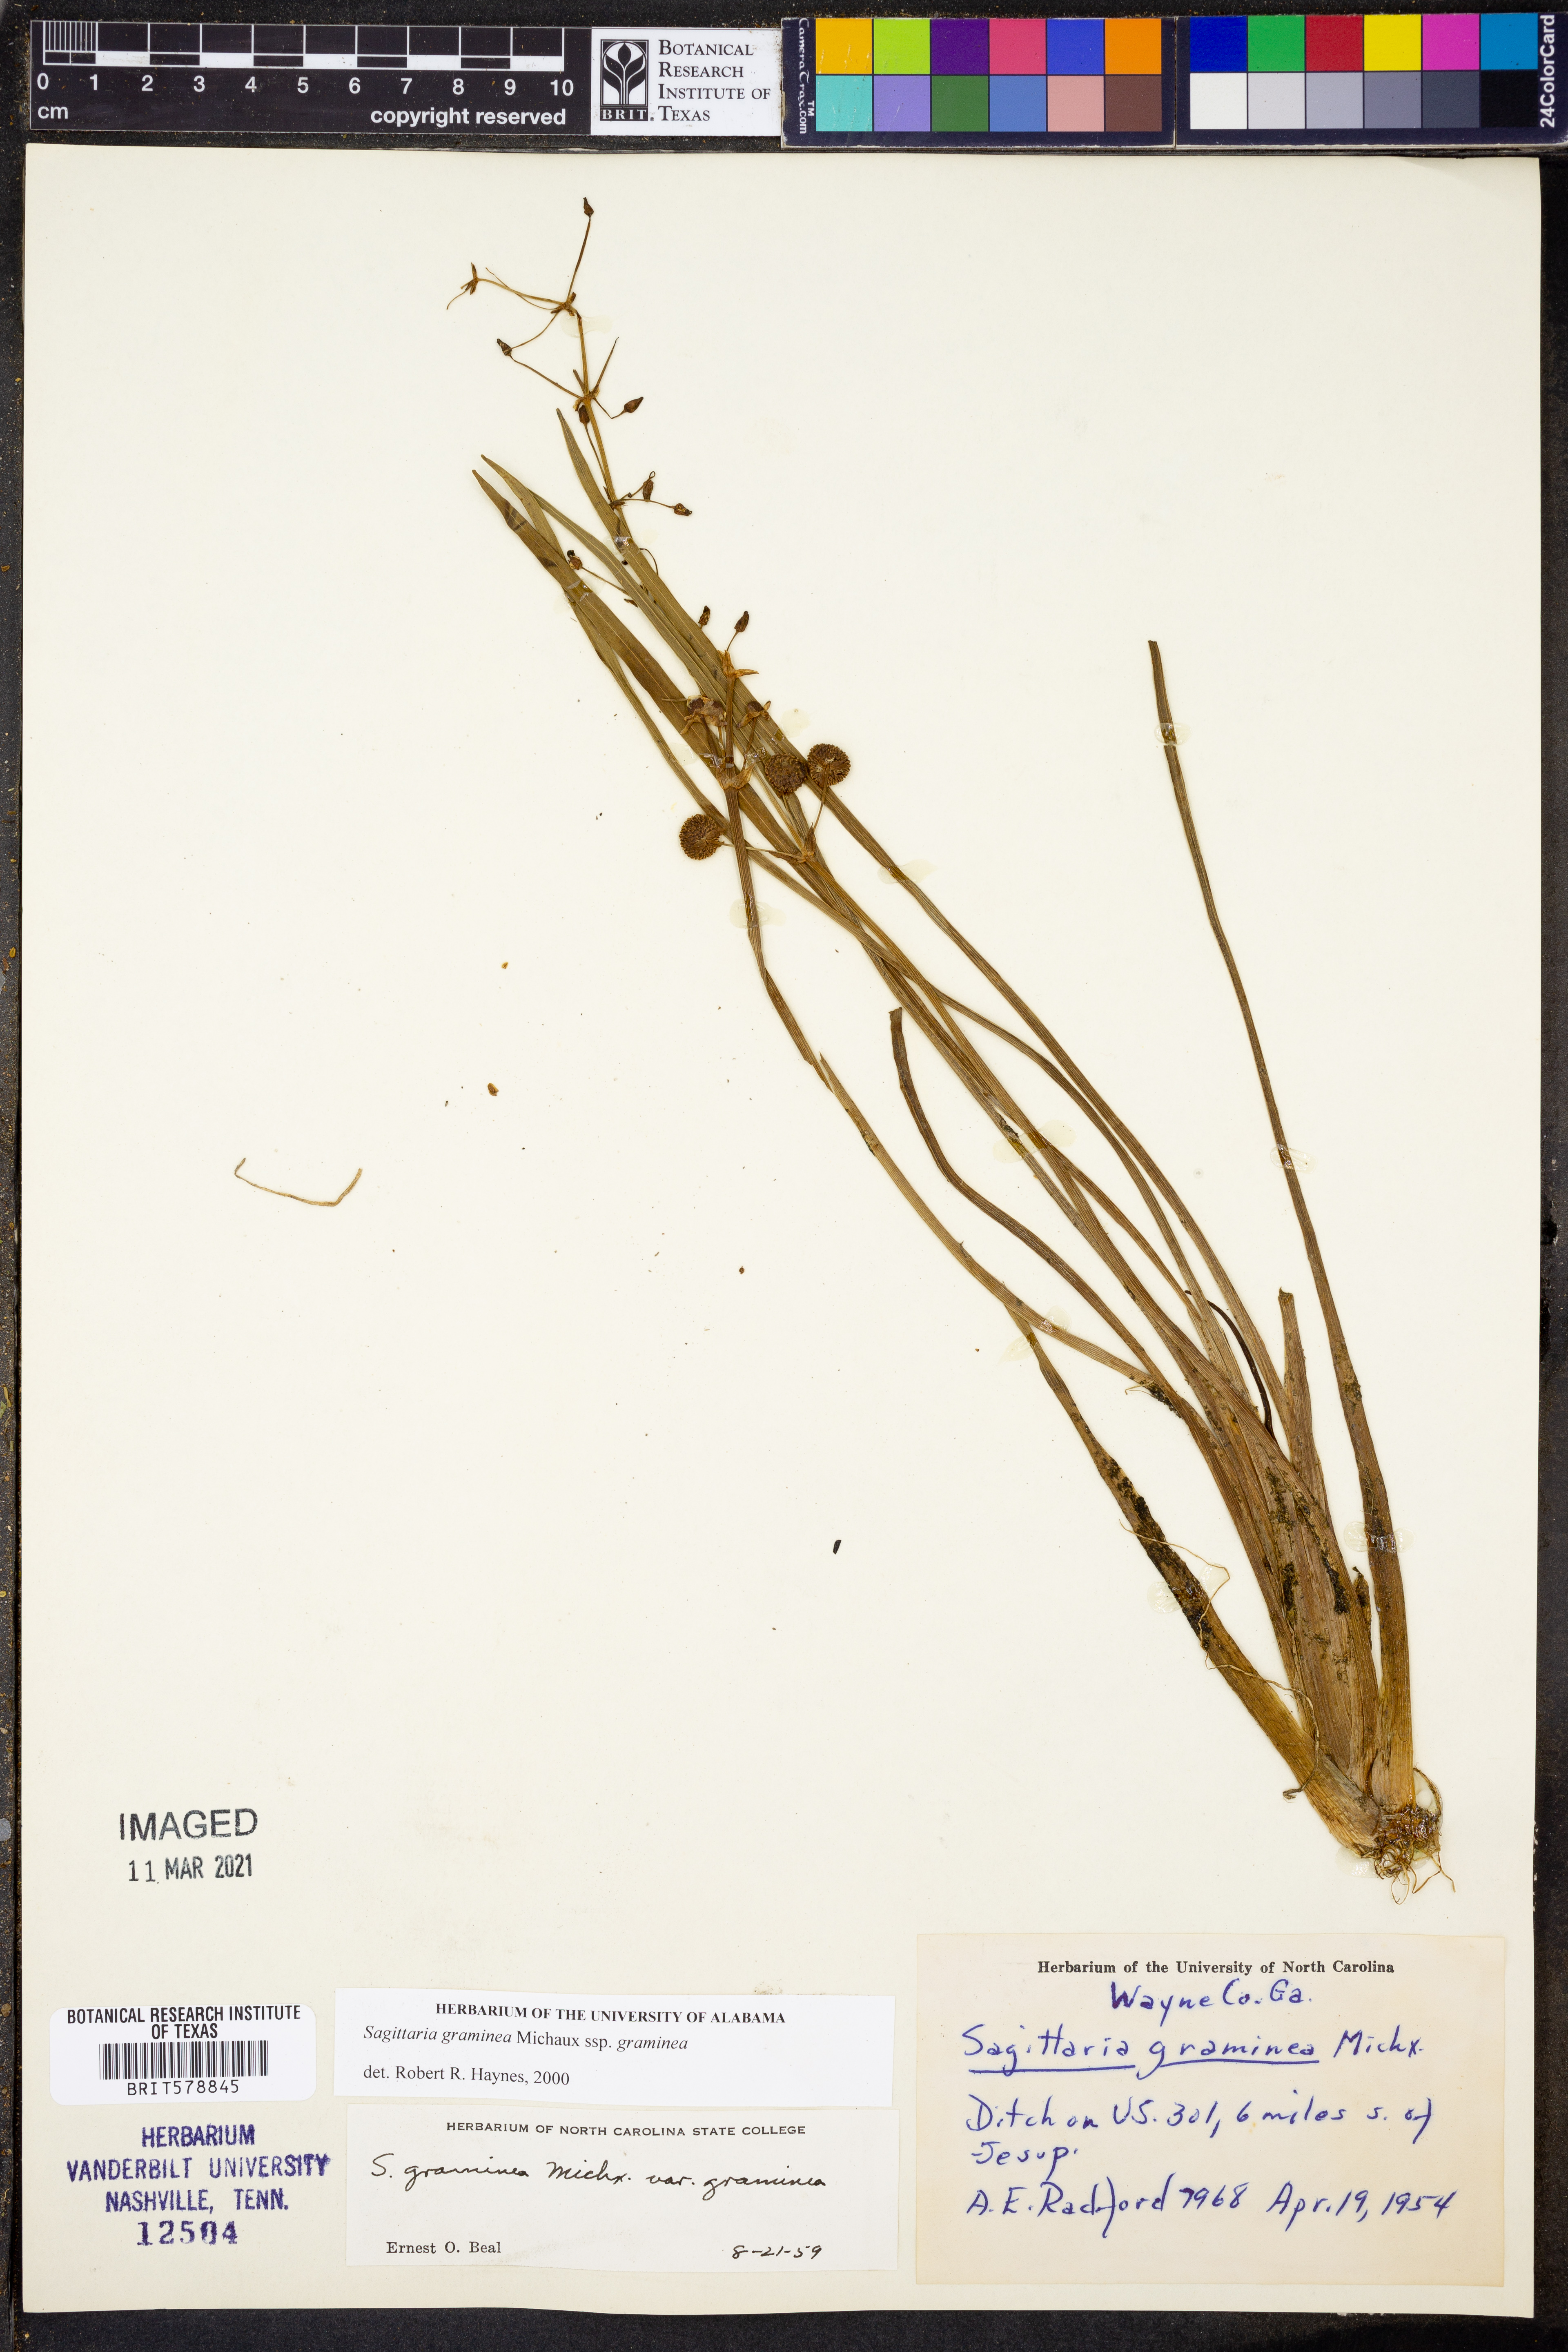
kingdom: Plantae
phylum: Tracheophyta
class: Liliopsida
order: Alismatales
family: Alismataceae
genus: Sagittaria
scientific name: Sagittaria graminea
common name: Grass-leaved arrowhead
